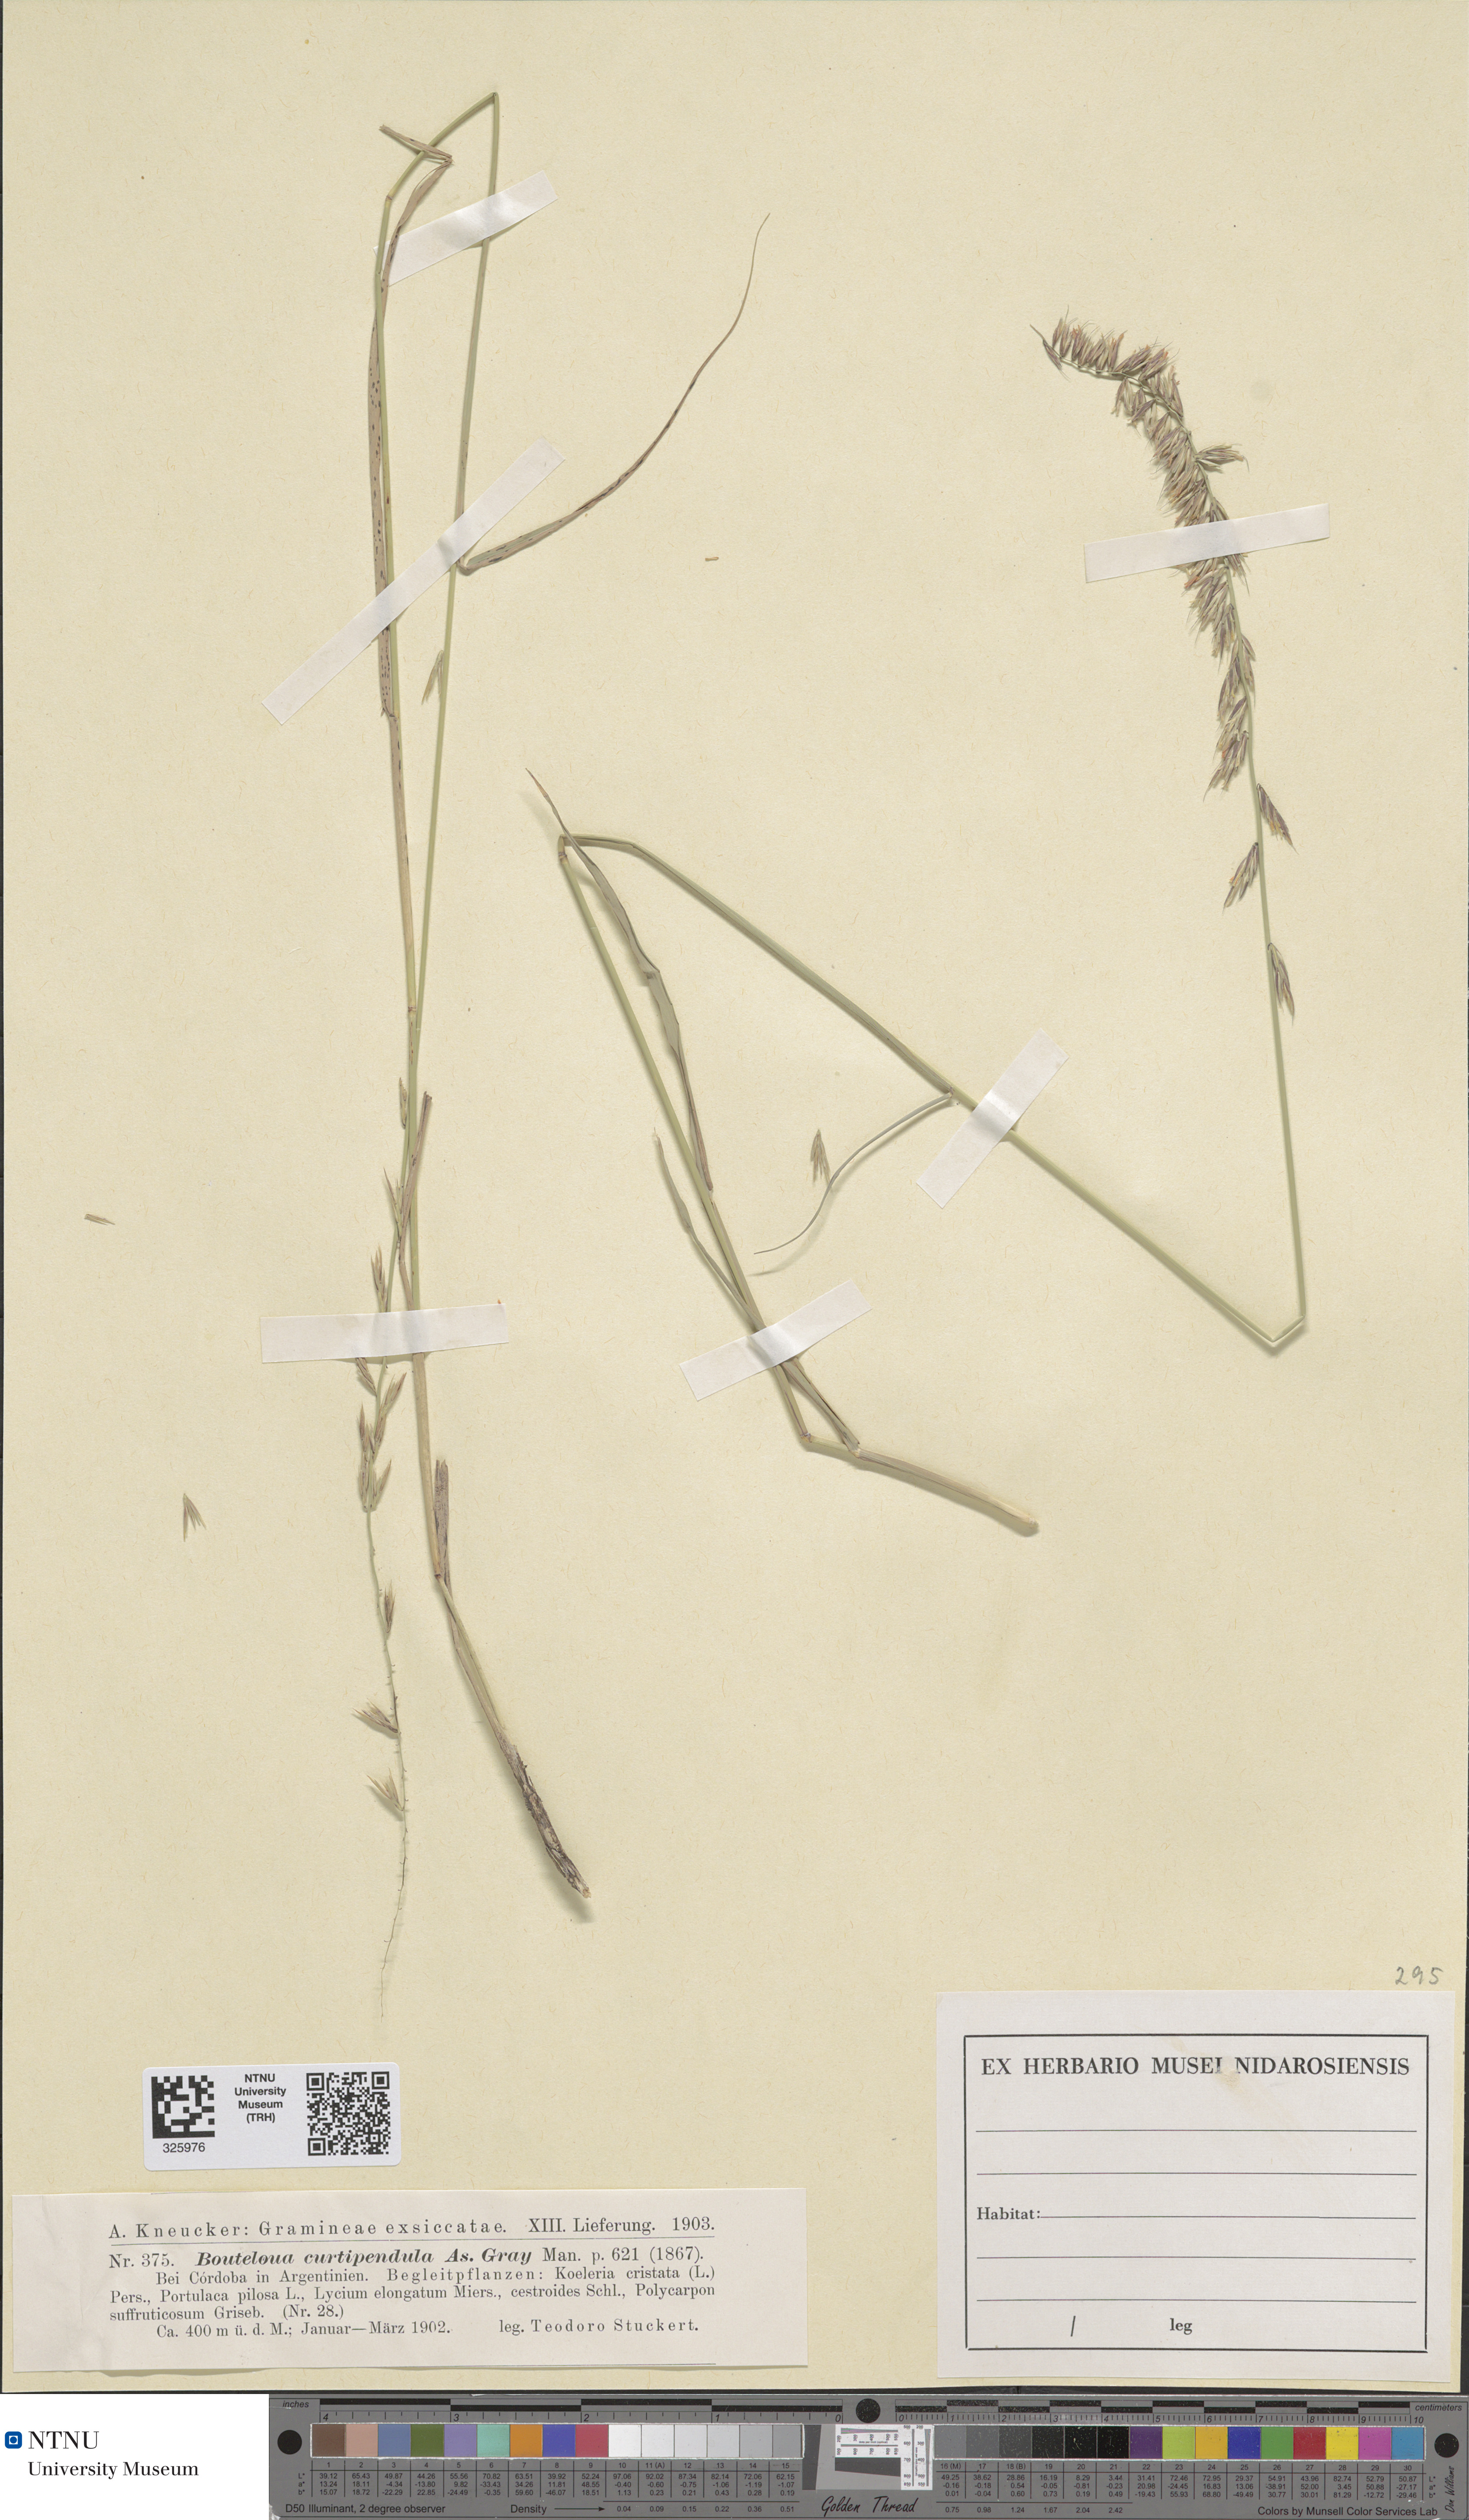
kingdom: Plantae
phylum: Tracheophyta
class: Liliopsida
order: Poales
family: Poaceae
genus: Bouteloua
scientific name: Bouteloua curtipendula
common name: Side-oats grama
